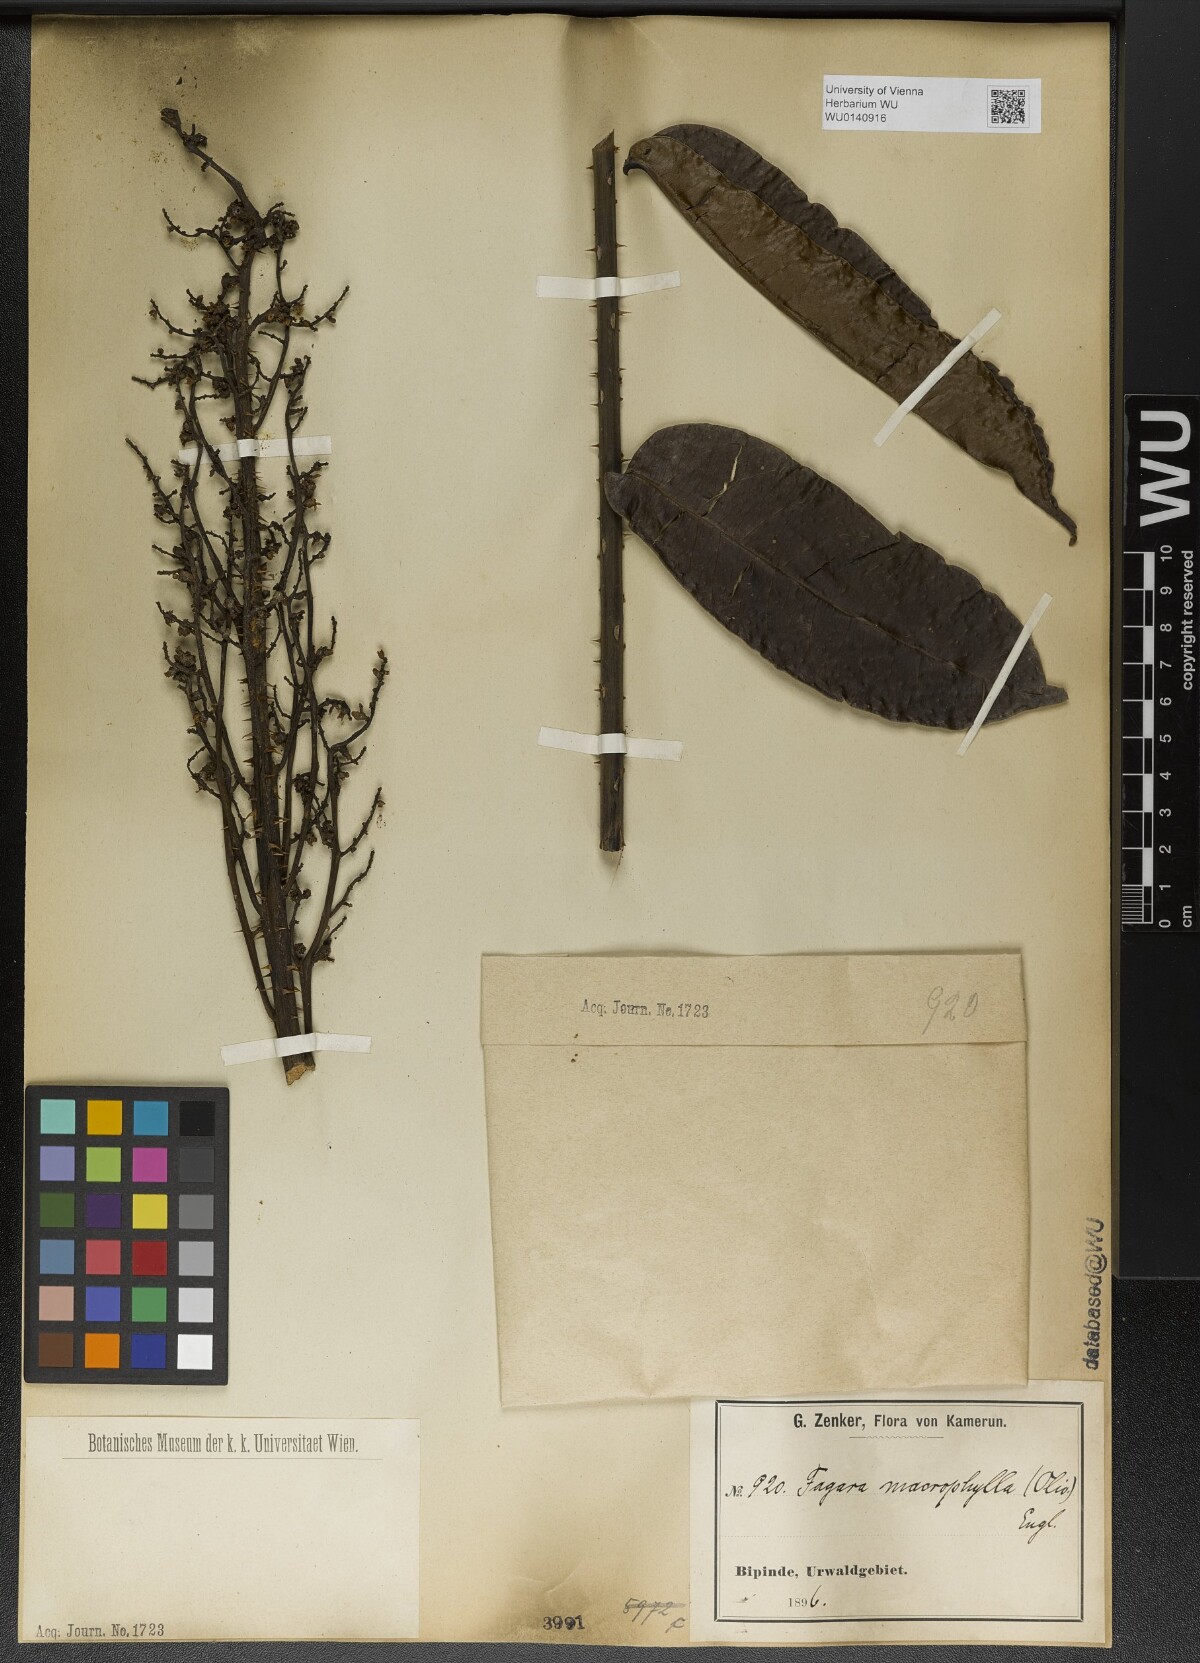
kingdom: Plantae
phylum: Tracheophyta
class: Magnoliopsida
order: Sapindales
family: Rutaceae
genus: Zanthoxylum
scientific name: Zanthoxylum gilletii
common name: African satinwood
